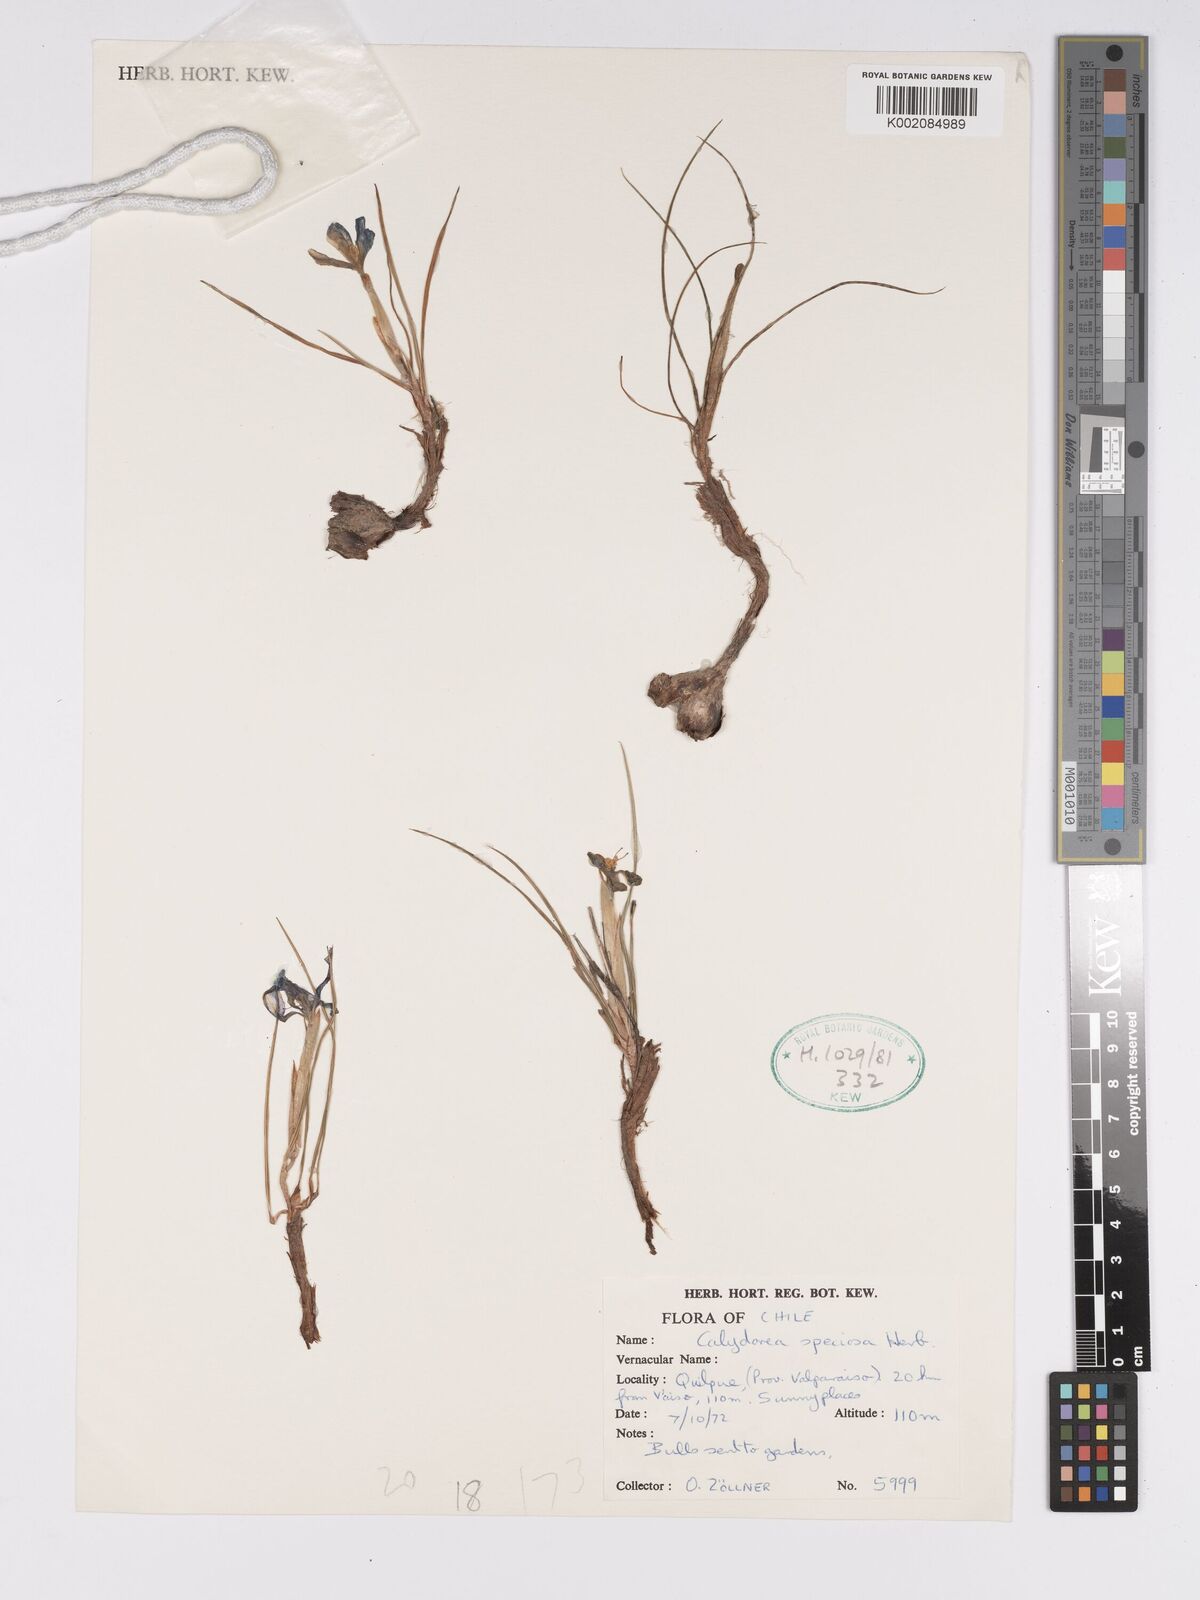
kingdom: Plantae
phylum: Tracheophyta
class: Liliopsida
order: Asparagales
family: Iridaceae
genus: Calydorea
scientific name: Calydorea xiphioides
